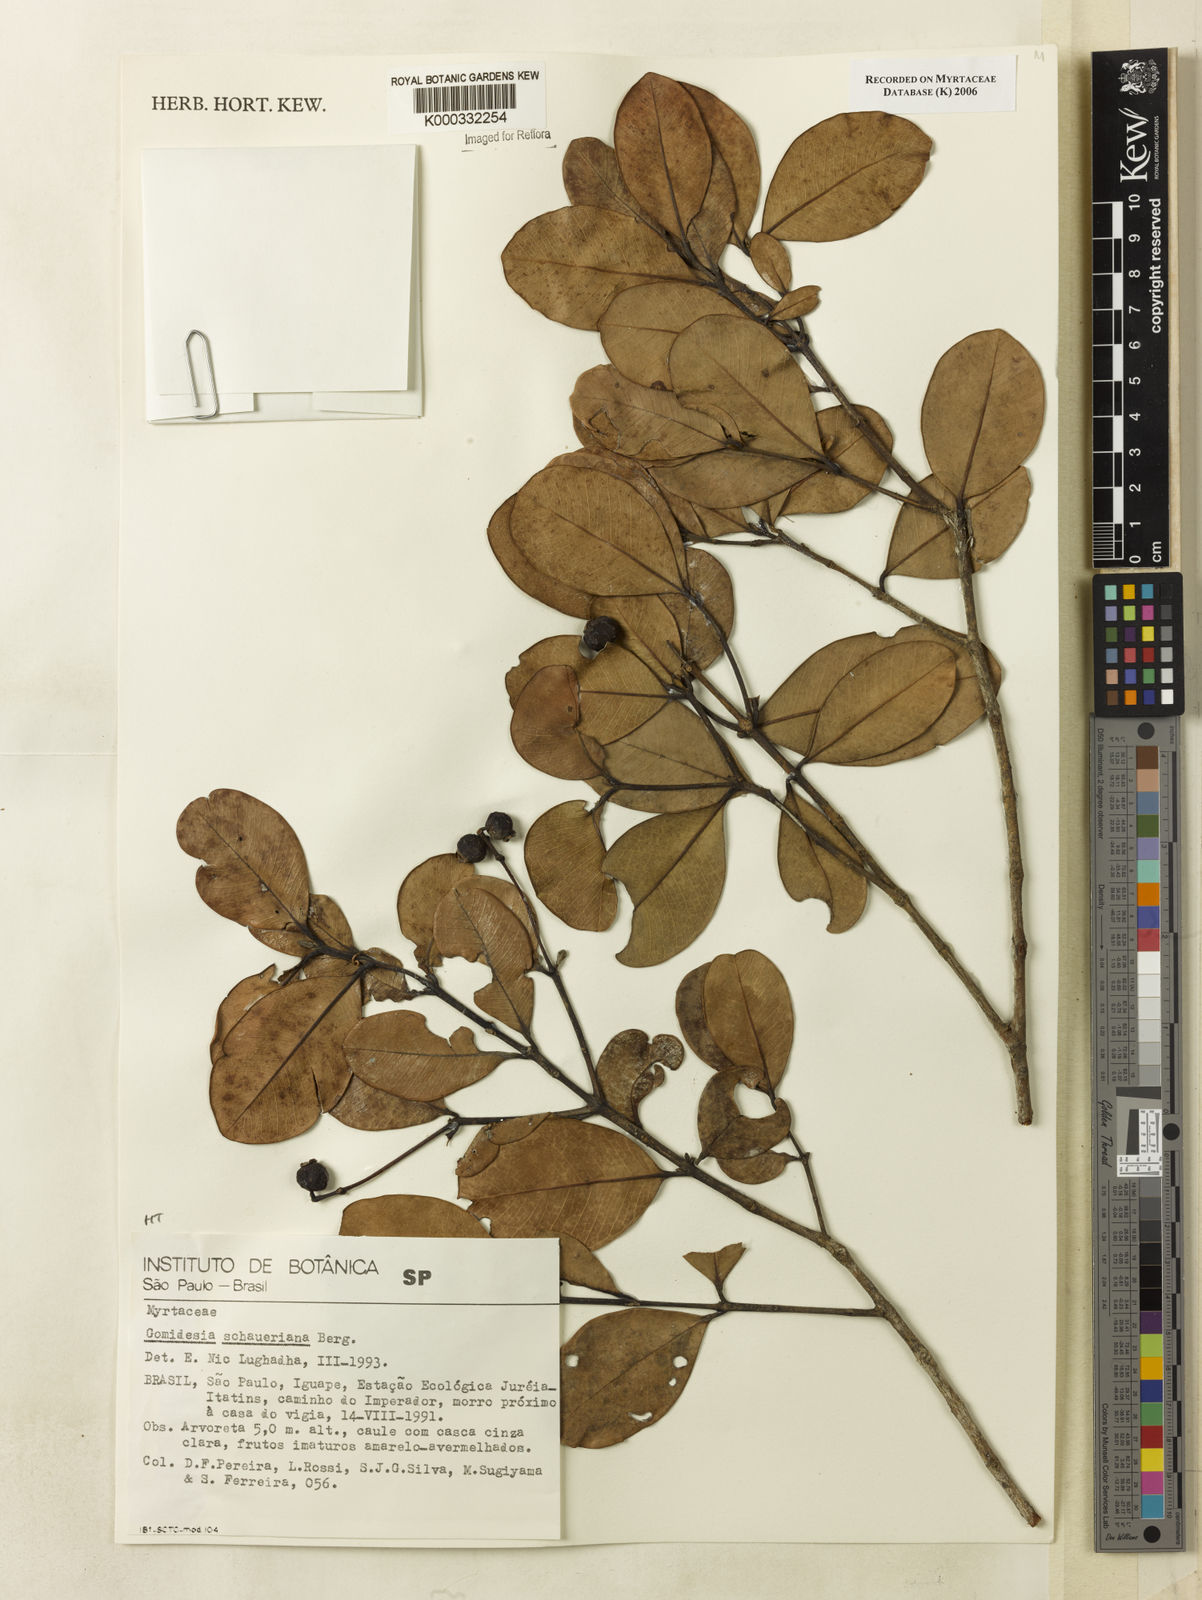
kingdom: Plantae
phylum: Tracheophyta
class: Magnoliopsida
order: Myrtales
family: Myrtaceae
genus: Myrcia
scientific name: Myrcia freyreissiana
